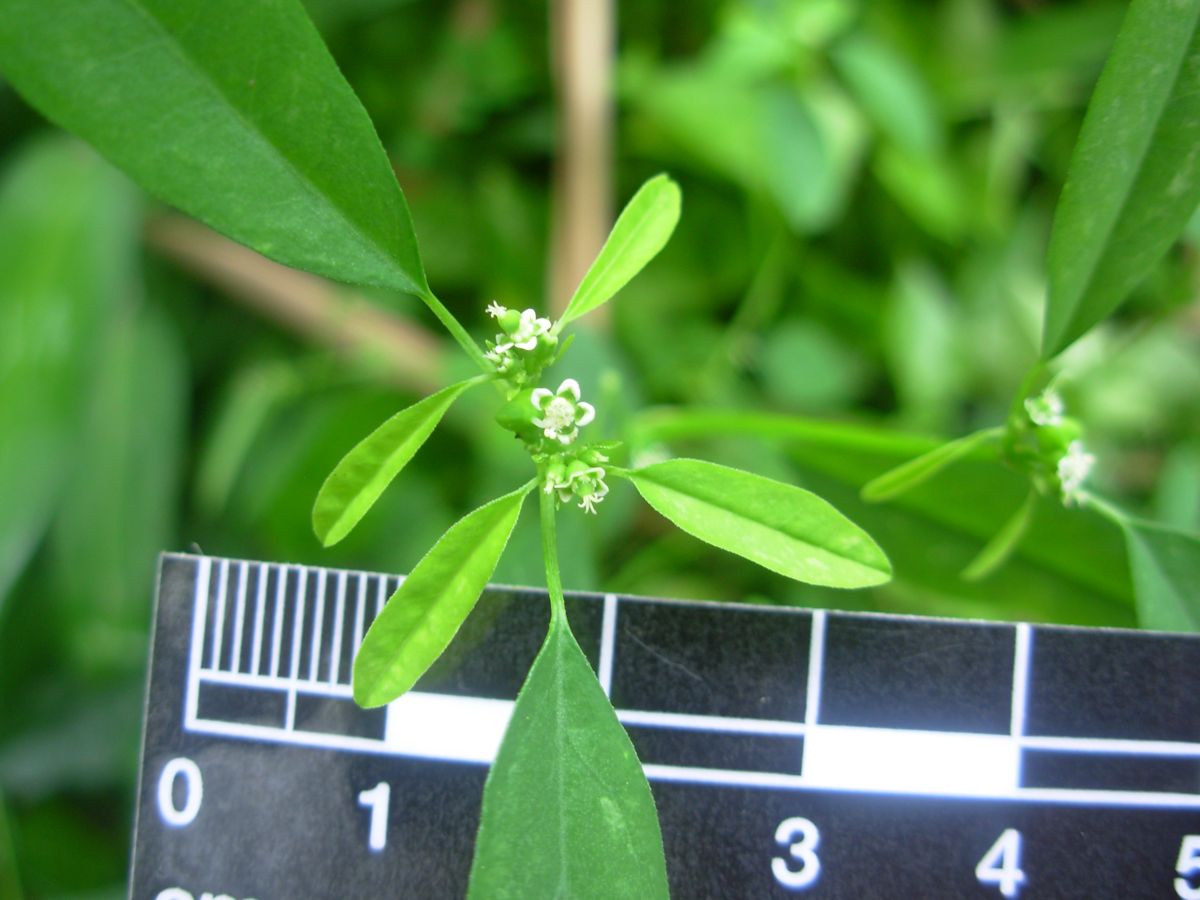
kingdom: Plantae
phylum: Tracheophyta
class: Magnoliopsida
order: Malpighiales
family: Euphorbiaceae
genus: Euphorbia
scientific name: Euphorbia graminea
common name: Grassleaf spurge
